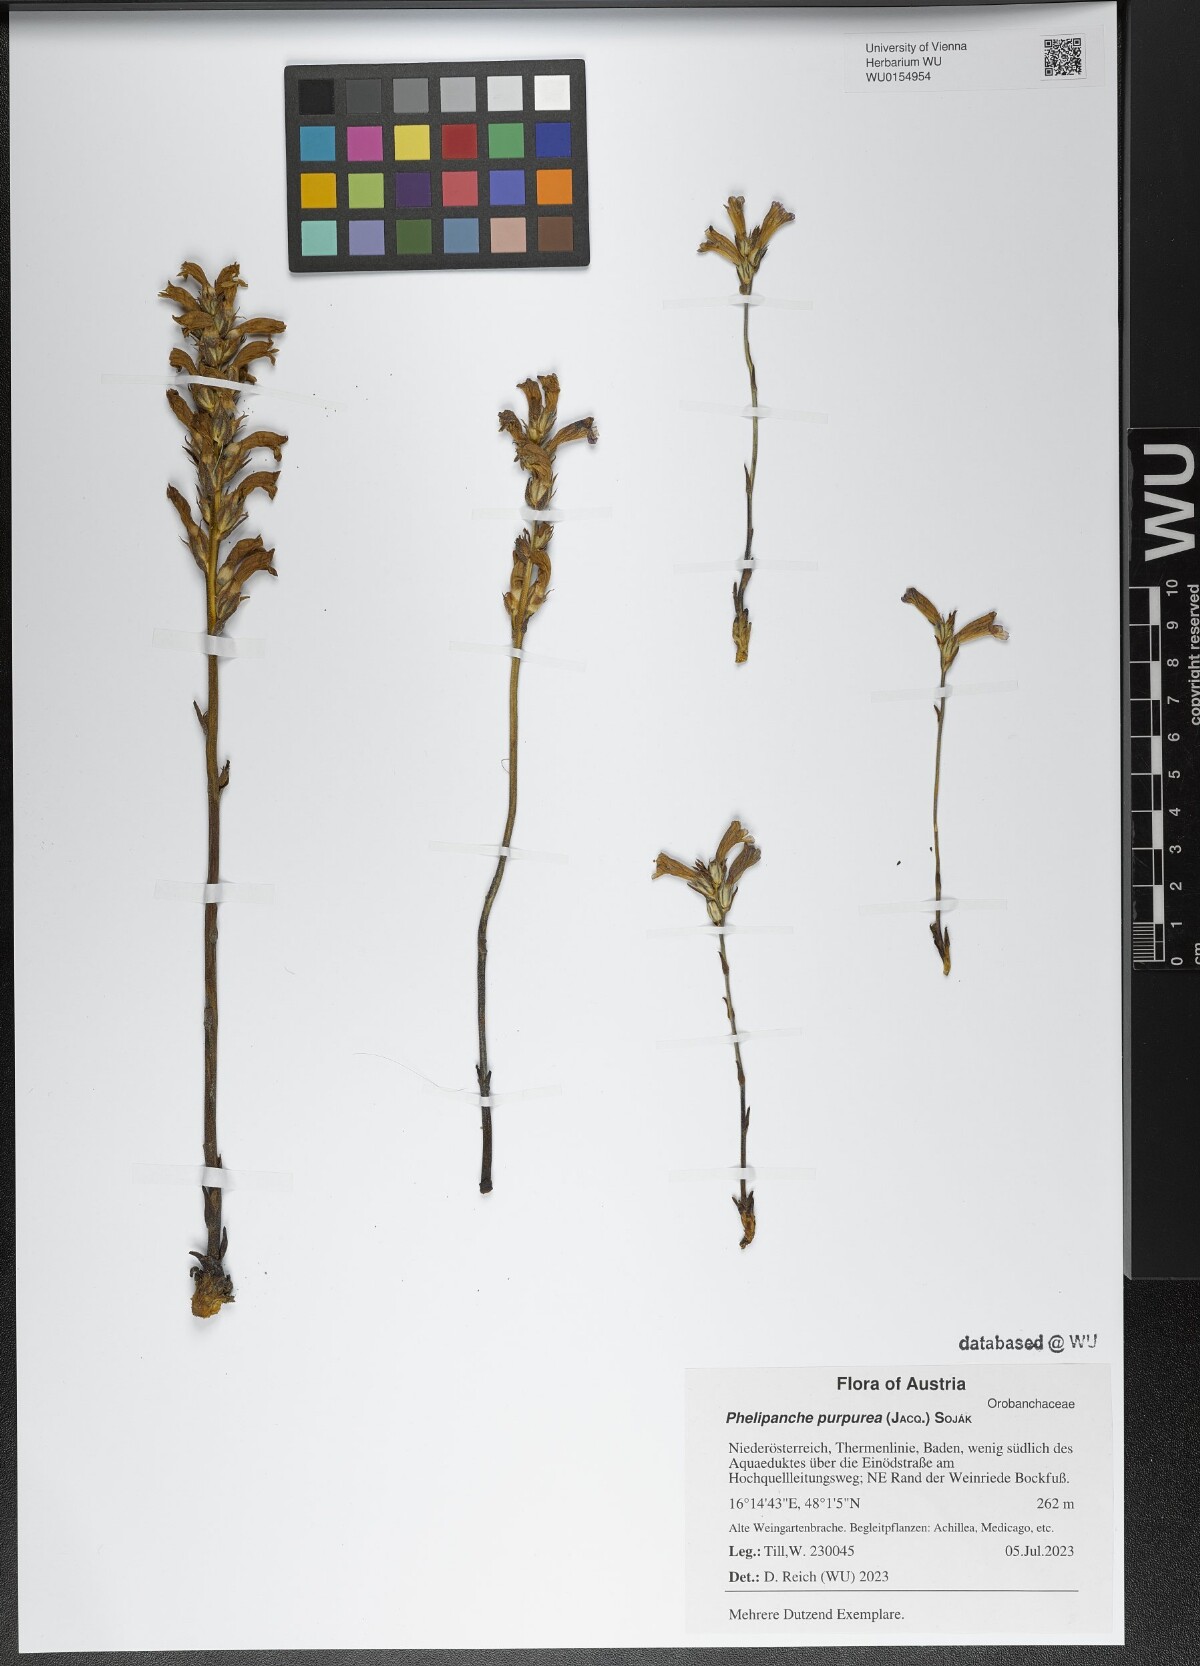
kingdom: Plantae
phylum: Tracheophyta
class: Magnoliopsida
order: Lamiales
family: Orobanchaceae
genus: Phelipanche
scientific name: Phelipanche purpurea
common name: Purple broomrape
